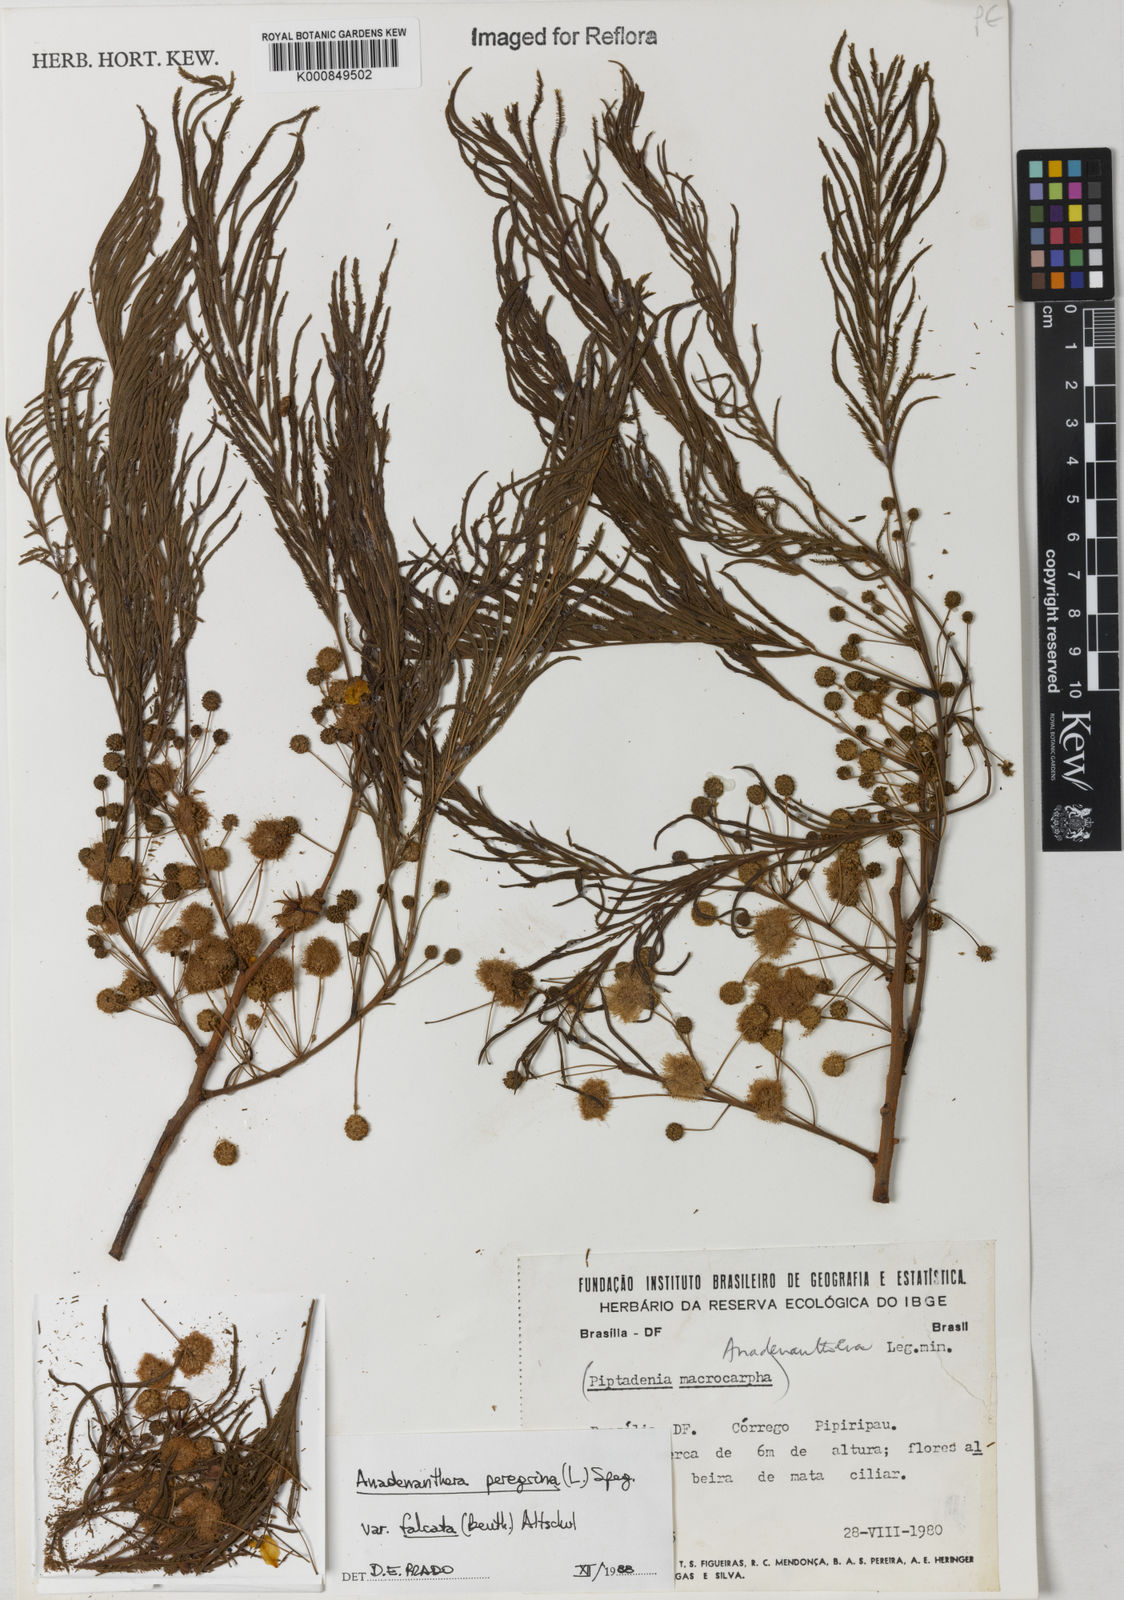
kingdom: Plantae
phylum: Tracheophyta
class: Magnoliopsida
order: Fabales
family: Fabaceae
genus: Anadenanthera
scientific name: Anadenanthera peregrina
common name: Cohoba
